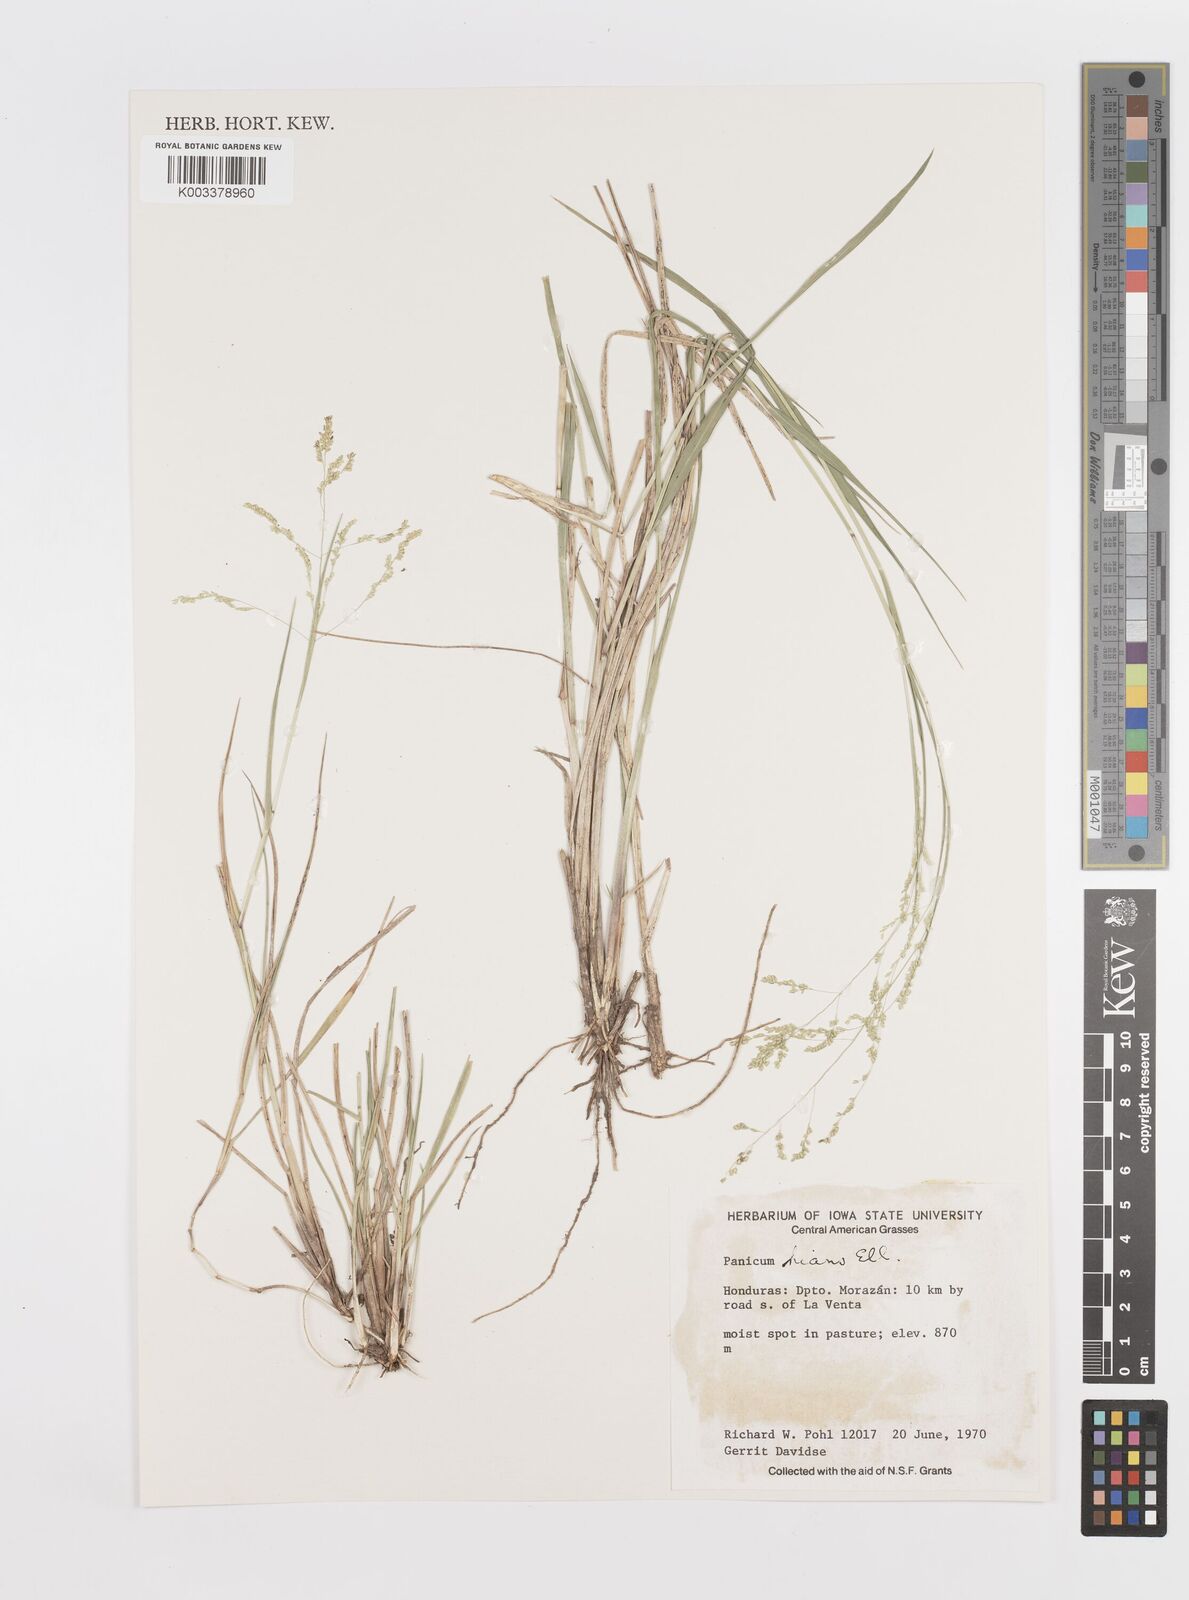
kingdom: Plantae
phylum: Tracheophyta
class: Liliopsida
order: Poales
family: Poaceae
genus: Steinchisma
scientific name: Steinchisma hians
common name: Gaping panic grass
